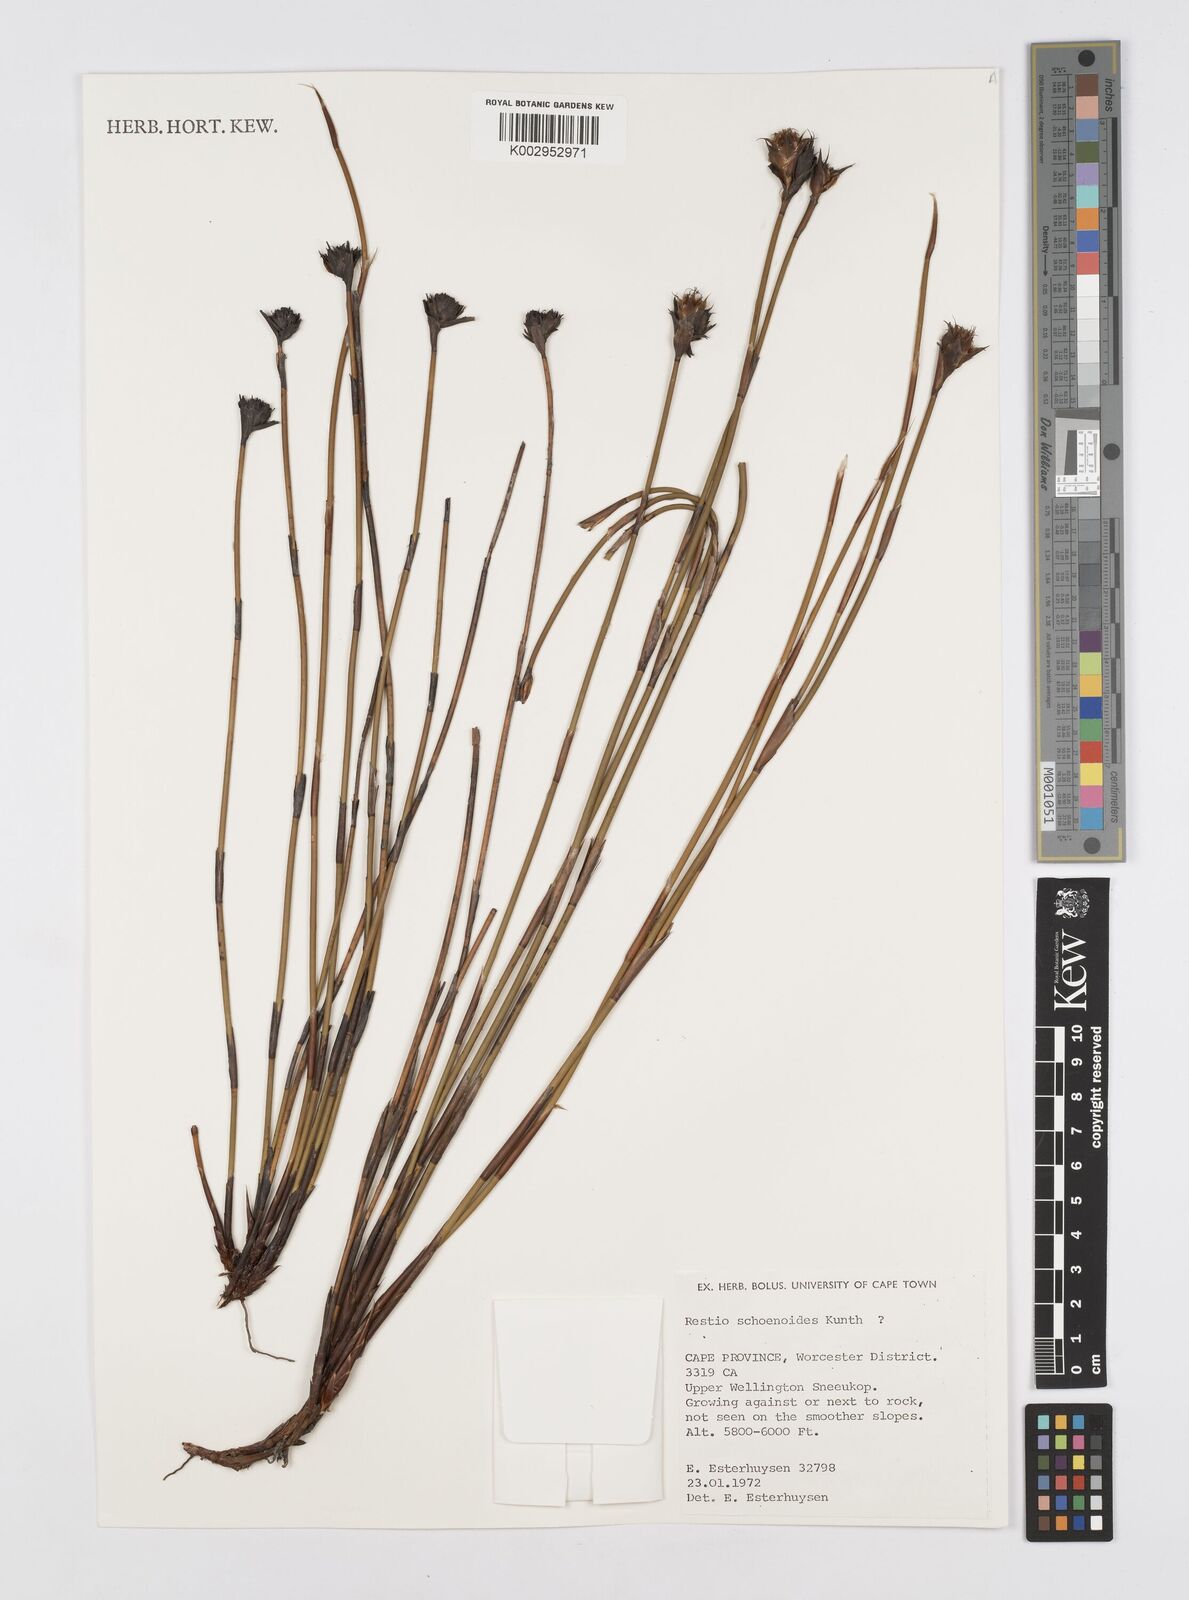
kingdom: Plantae
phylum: Tracheophyta
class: Liliopsida
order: Poales
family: Restionaceae
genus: Restio
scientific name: Restio schoenoides
